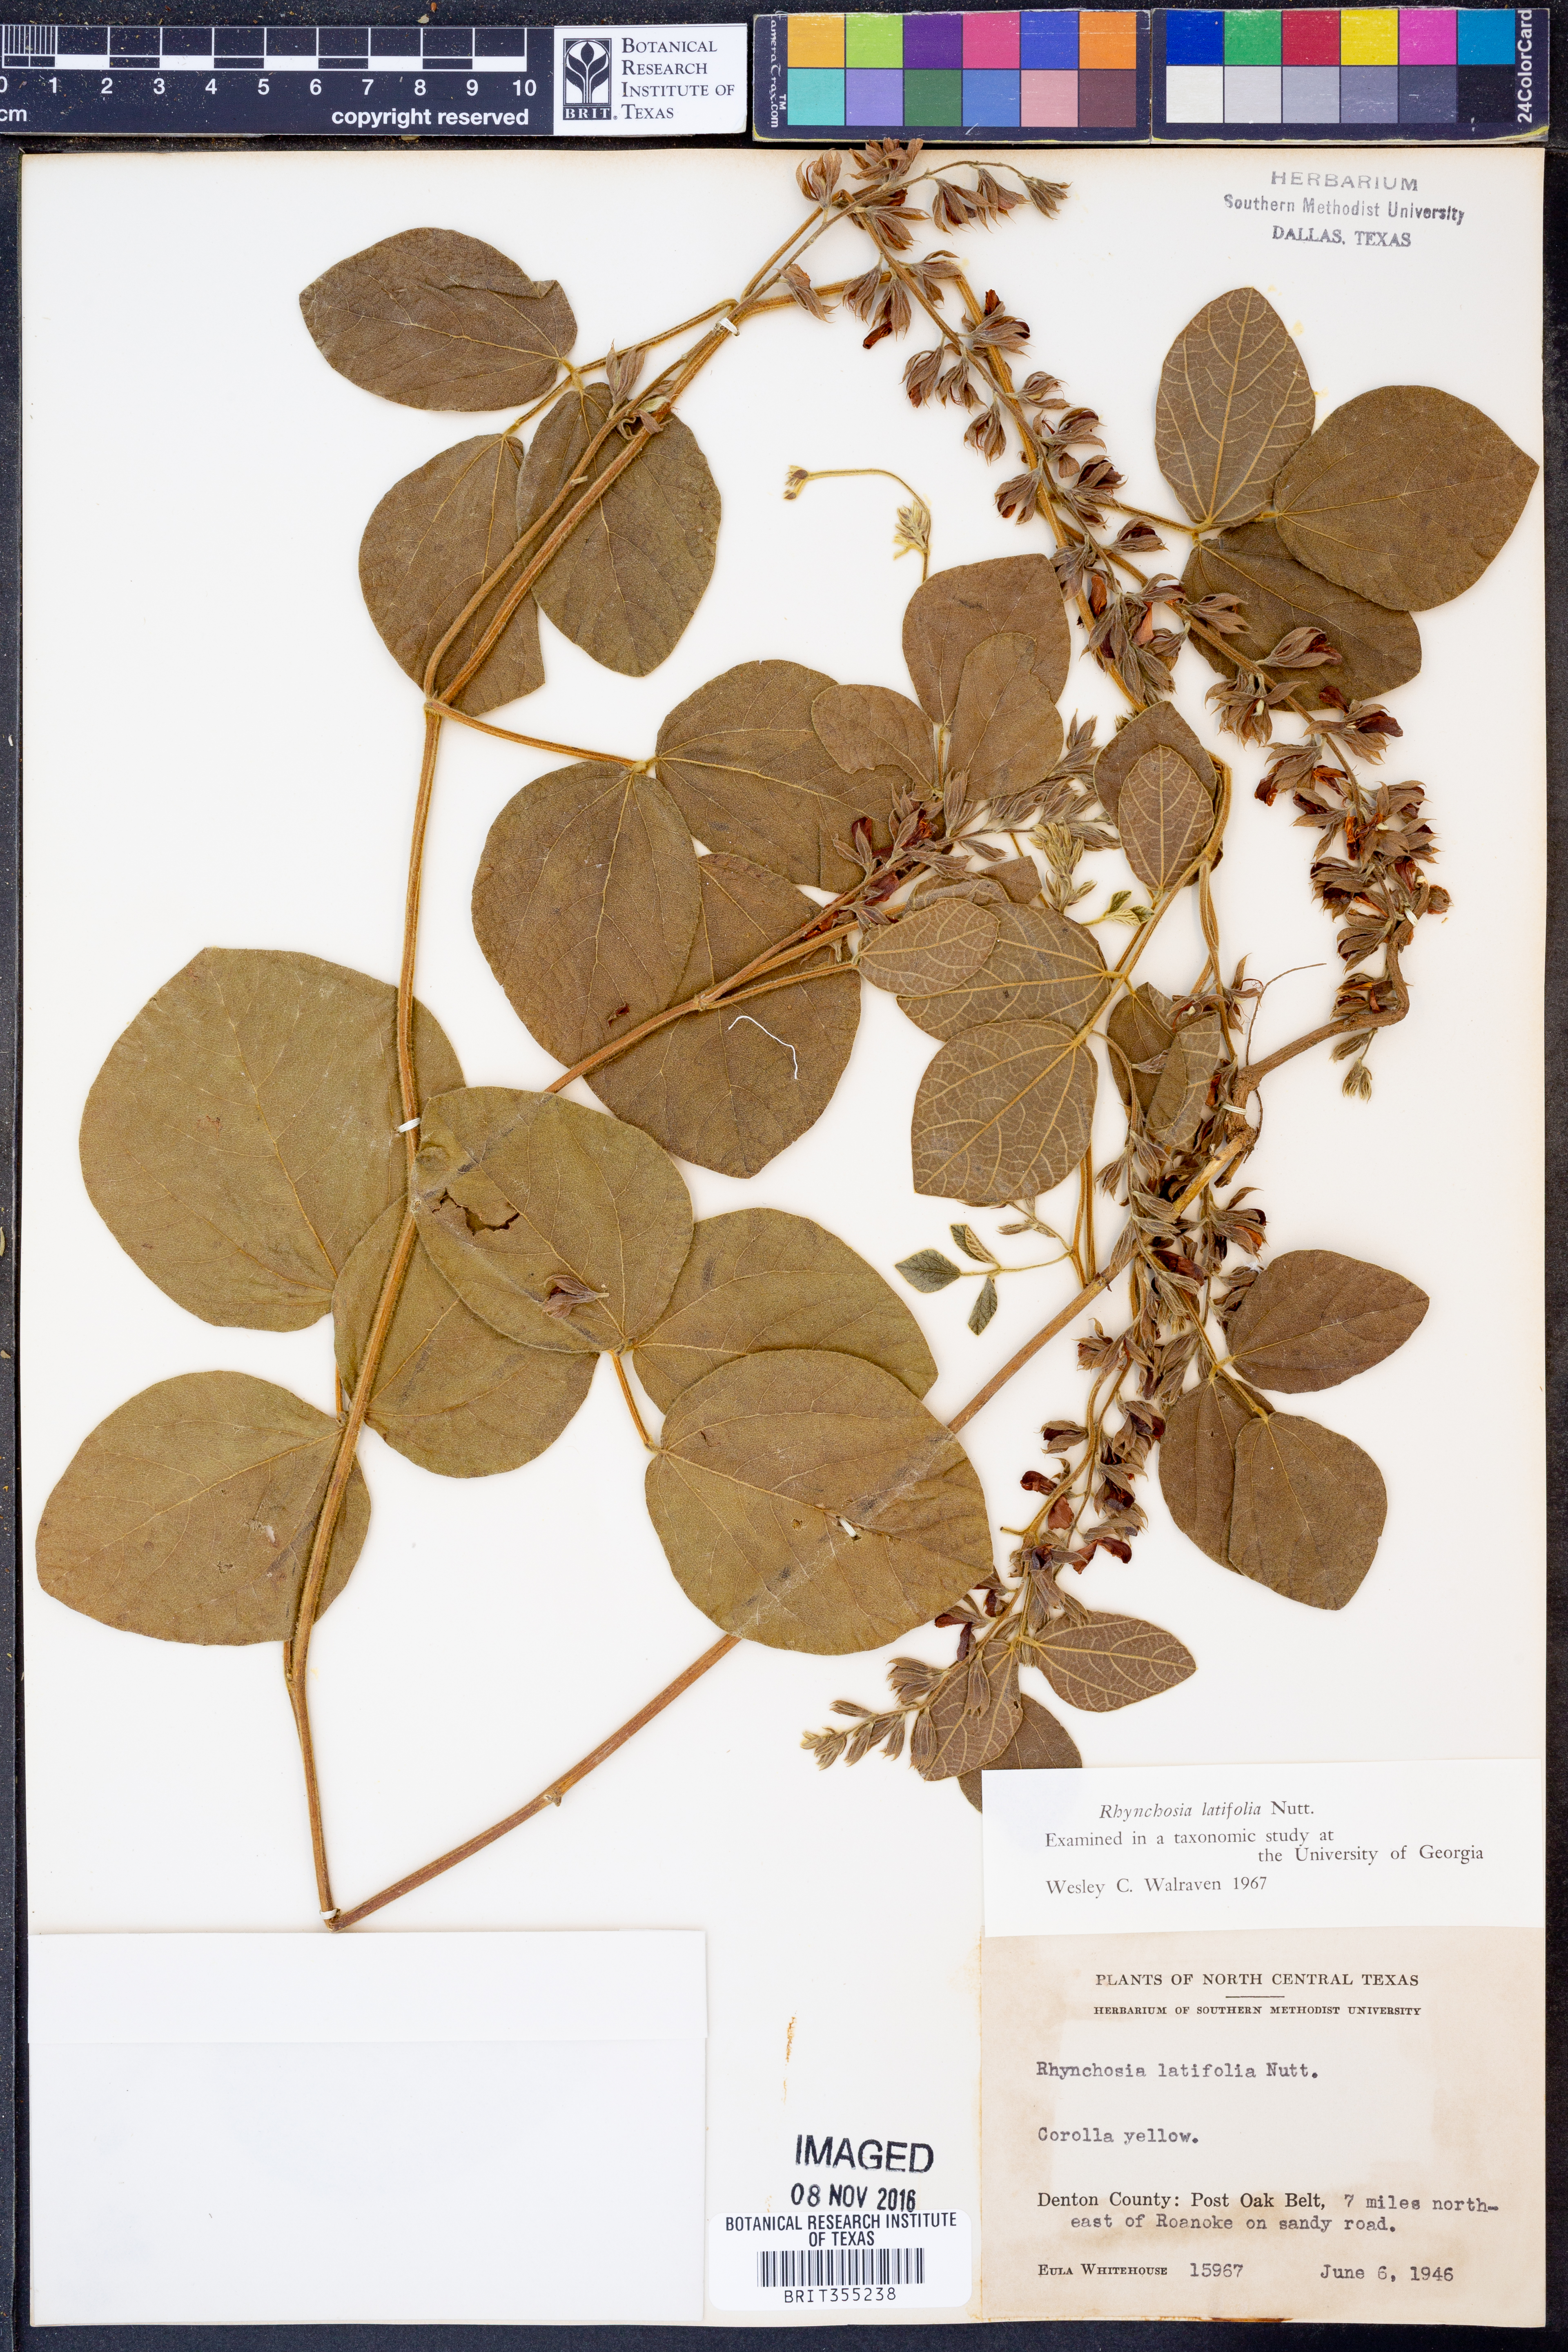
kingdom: Plantae
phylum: Tracheophyta
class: Magnoliopsida
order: Fabales
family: Fabaceae
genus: Rhynchosia
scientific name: Rhynchosia latifolia
